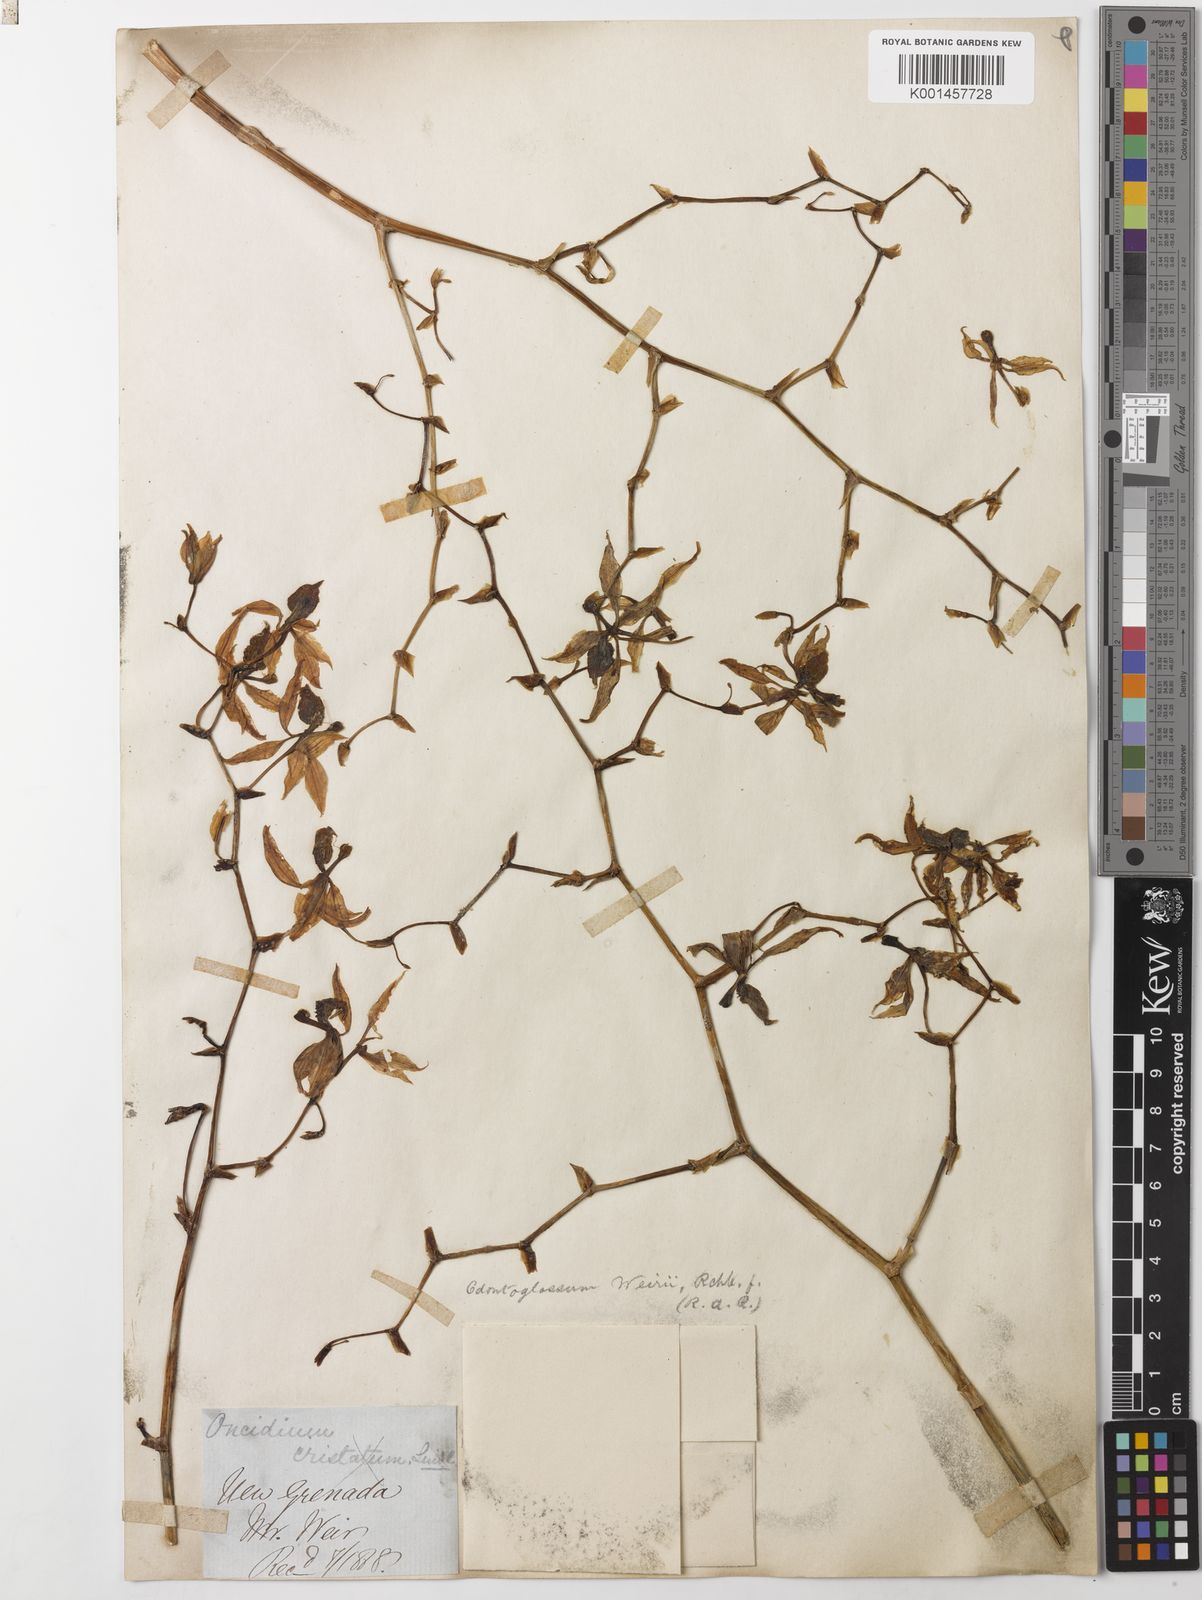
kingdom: Plantae
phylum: Tracheophyta
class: Liliopsida
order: Asparagales
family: Orchidaceae
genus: Cyrtochilum
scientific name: Cyrtochilum
